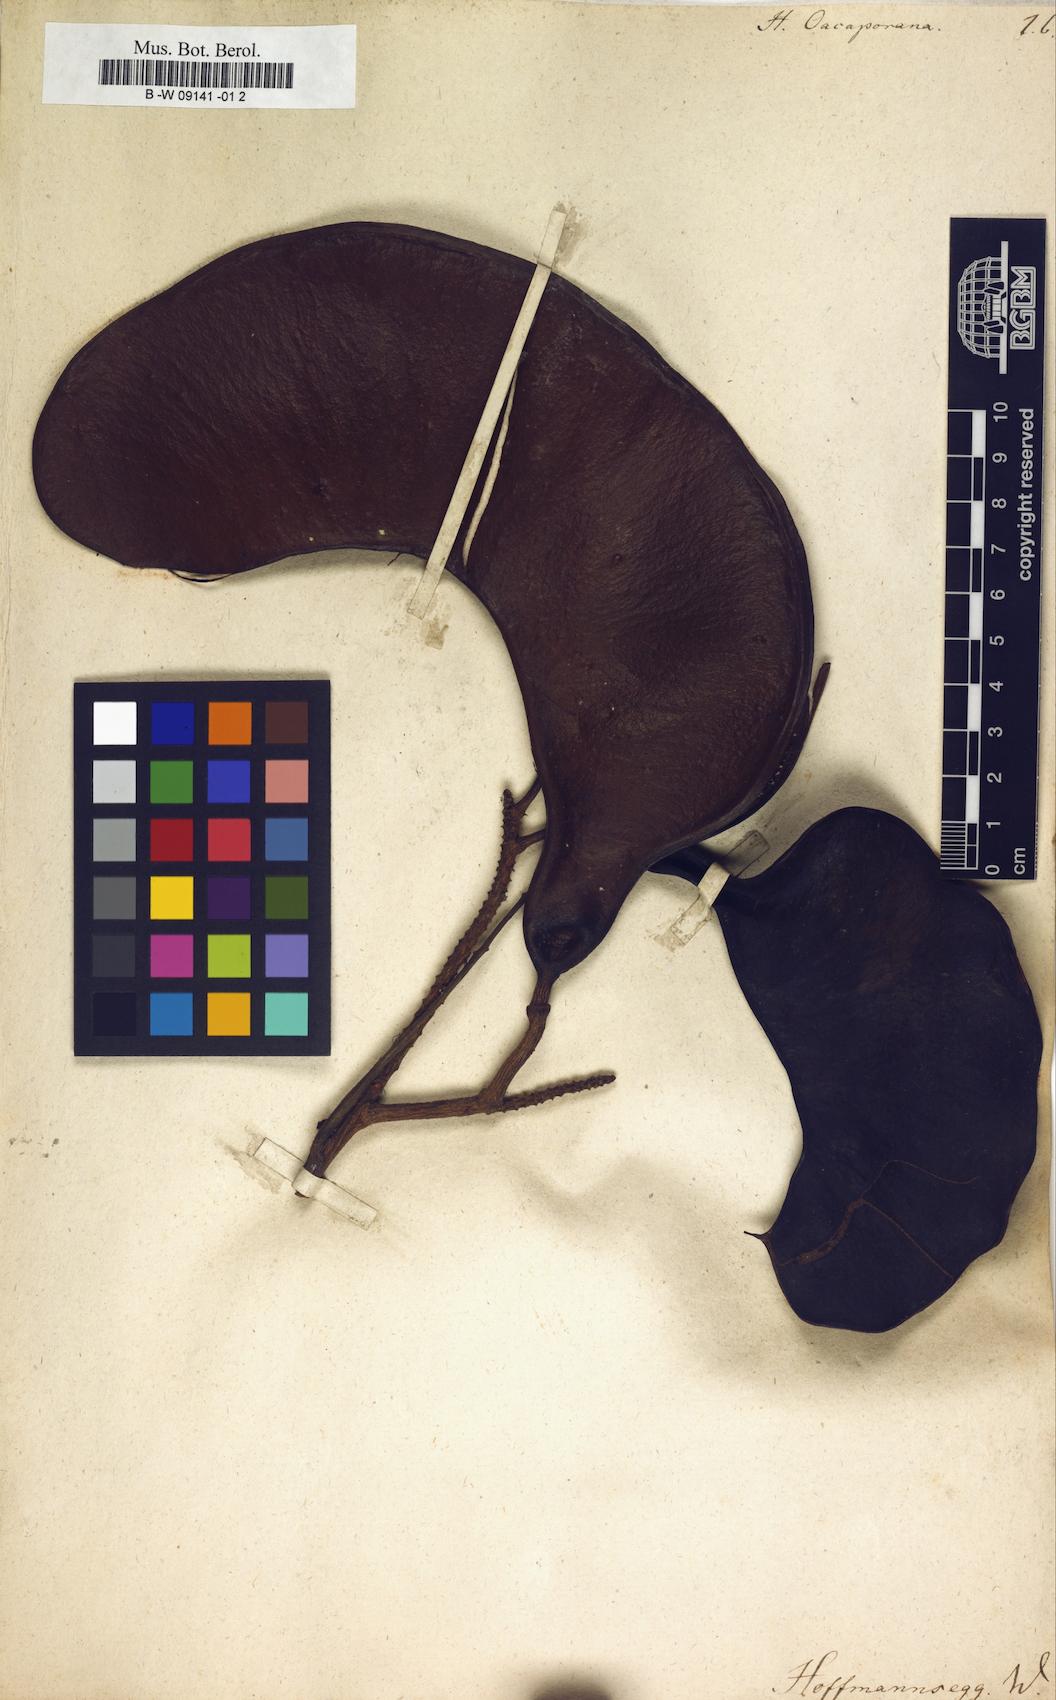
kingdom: Plantae
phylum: Tracheophyta
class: Magnoliopsida
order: Apiales
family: Apiaceae
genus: Heteromorpha
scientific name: Heteromorpha
